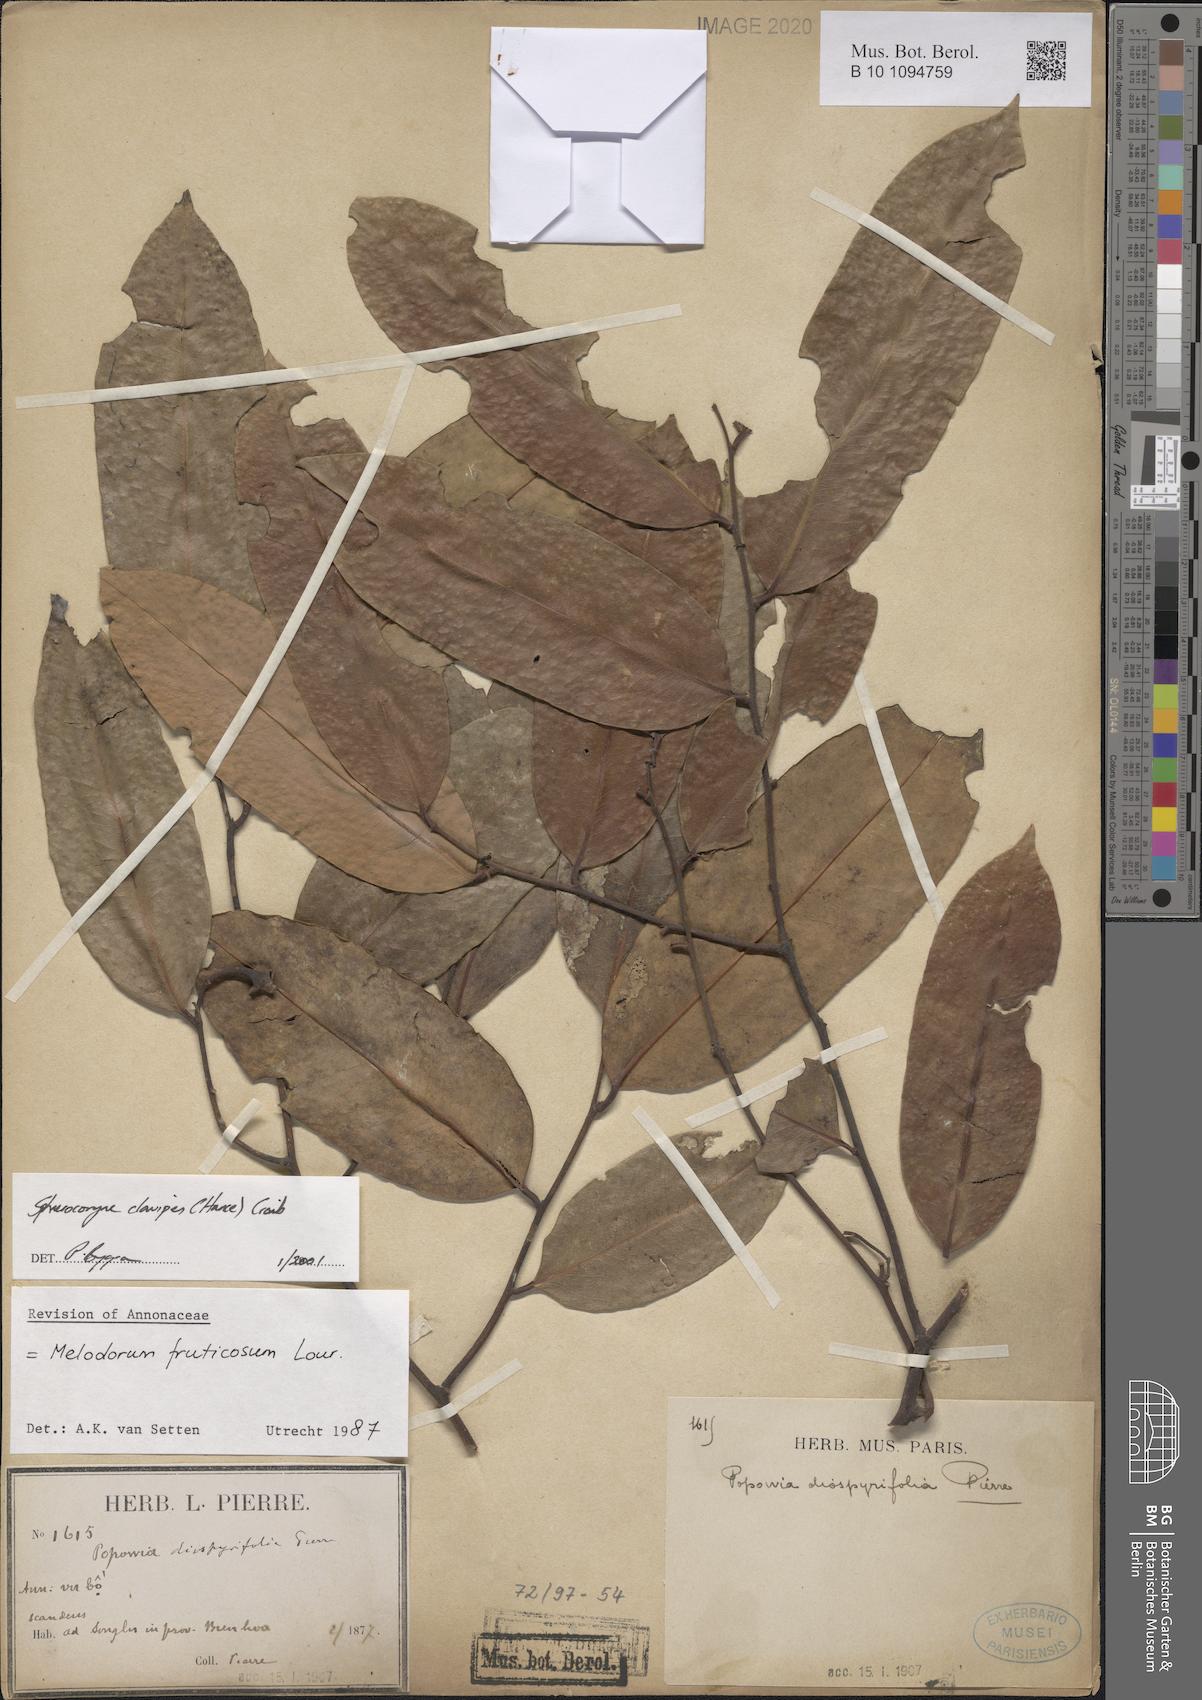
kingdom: Plantae
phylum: Tracheophyta
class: Magnoliopsida
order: Magnoliales
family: Annonaceae
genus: Sphaerocoryne
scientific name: Sphaerocoryne affinis
